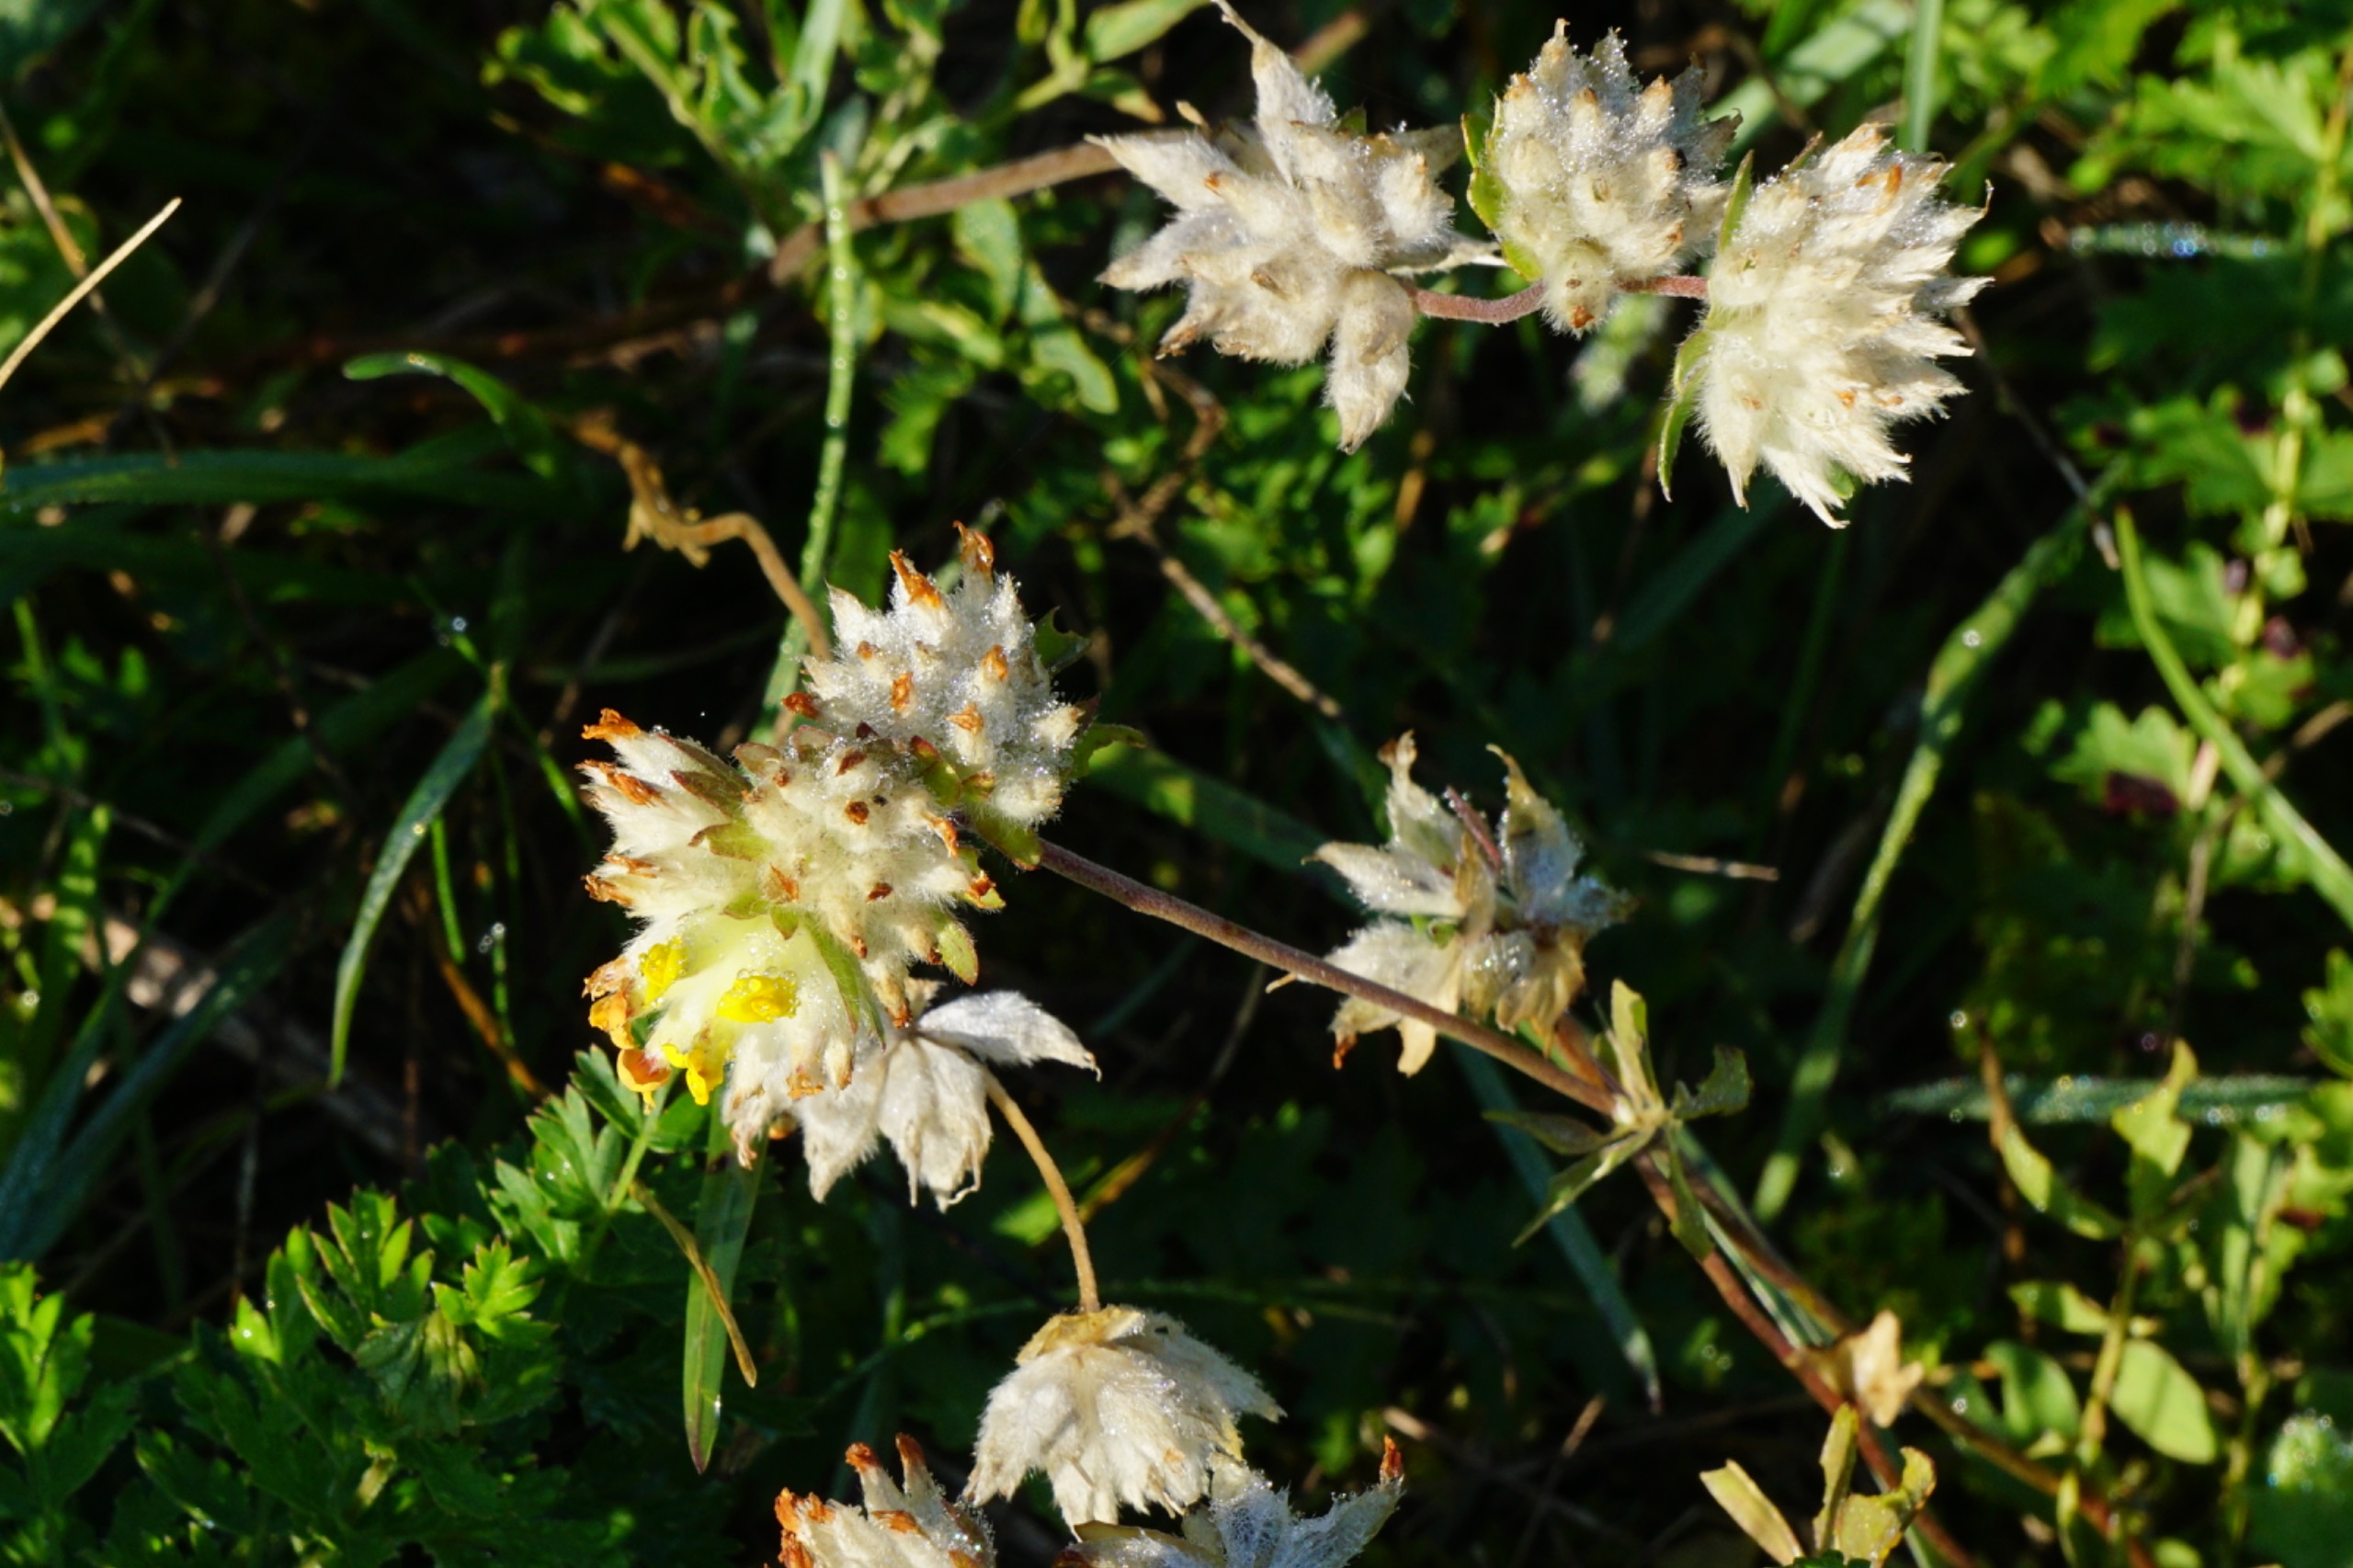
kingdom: Plantae
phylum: Tracheophyta
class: Magnoliopsida
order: Fabales
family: Fabaceae
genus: Anthyllis
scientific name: Anthyllis vulneraria
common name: Rundbælg
